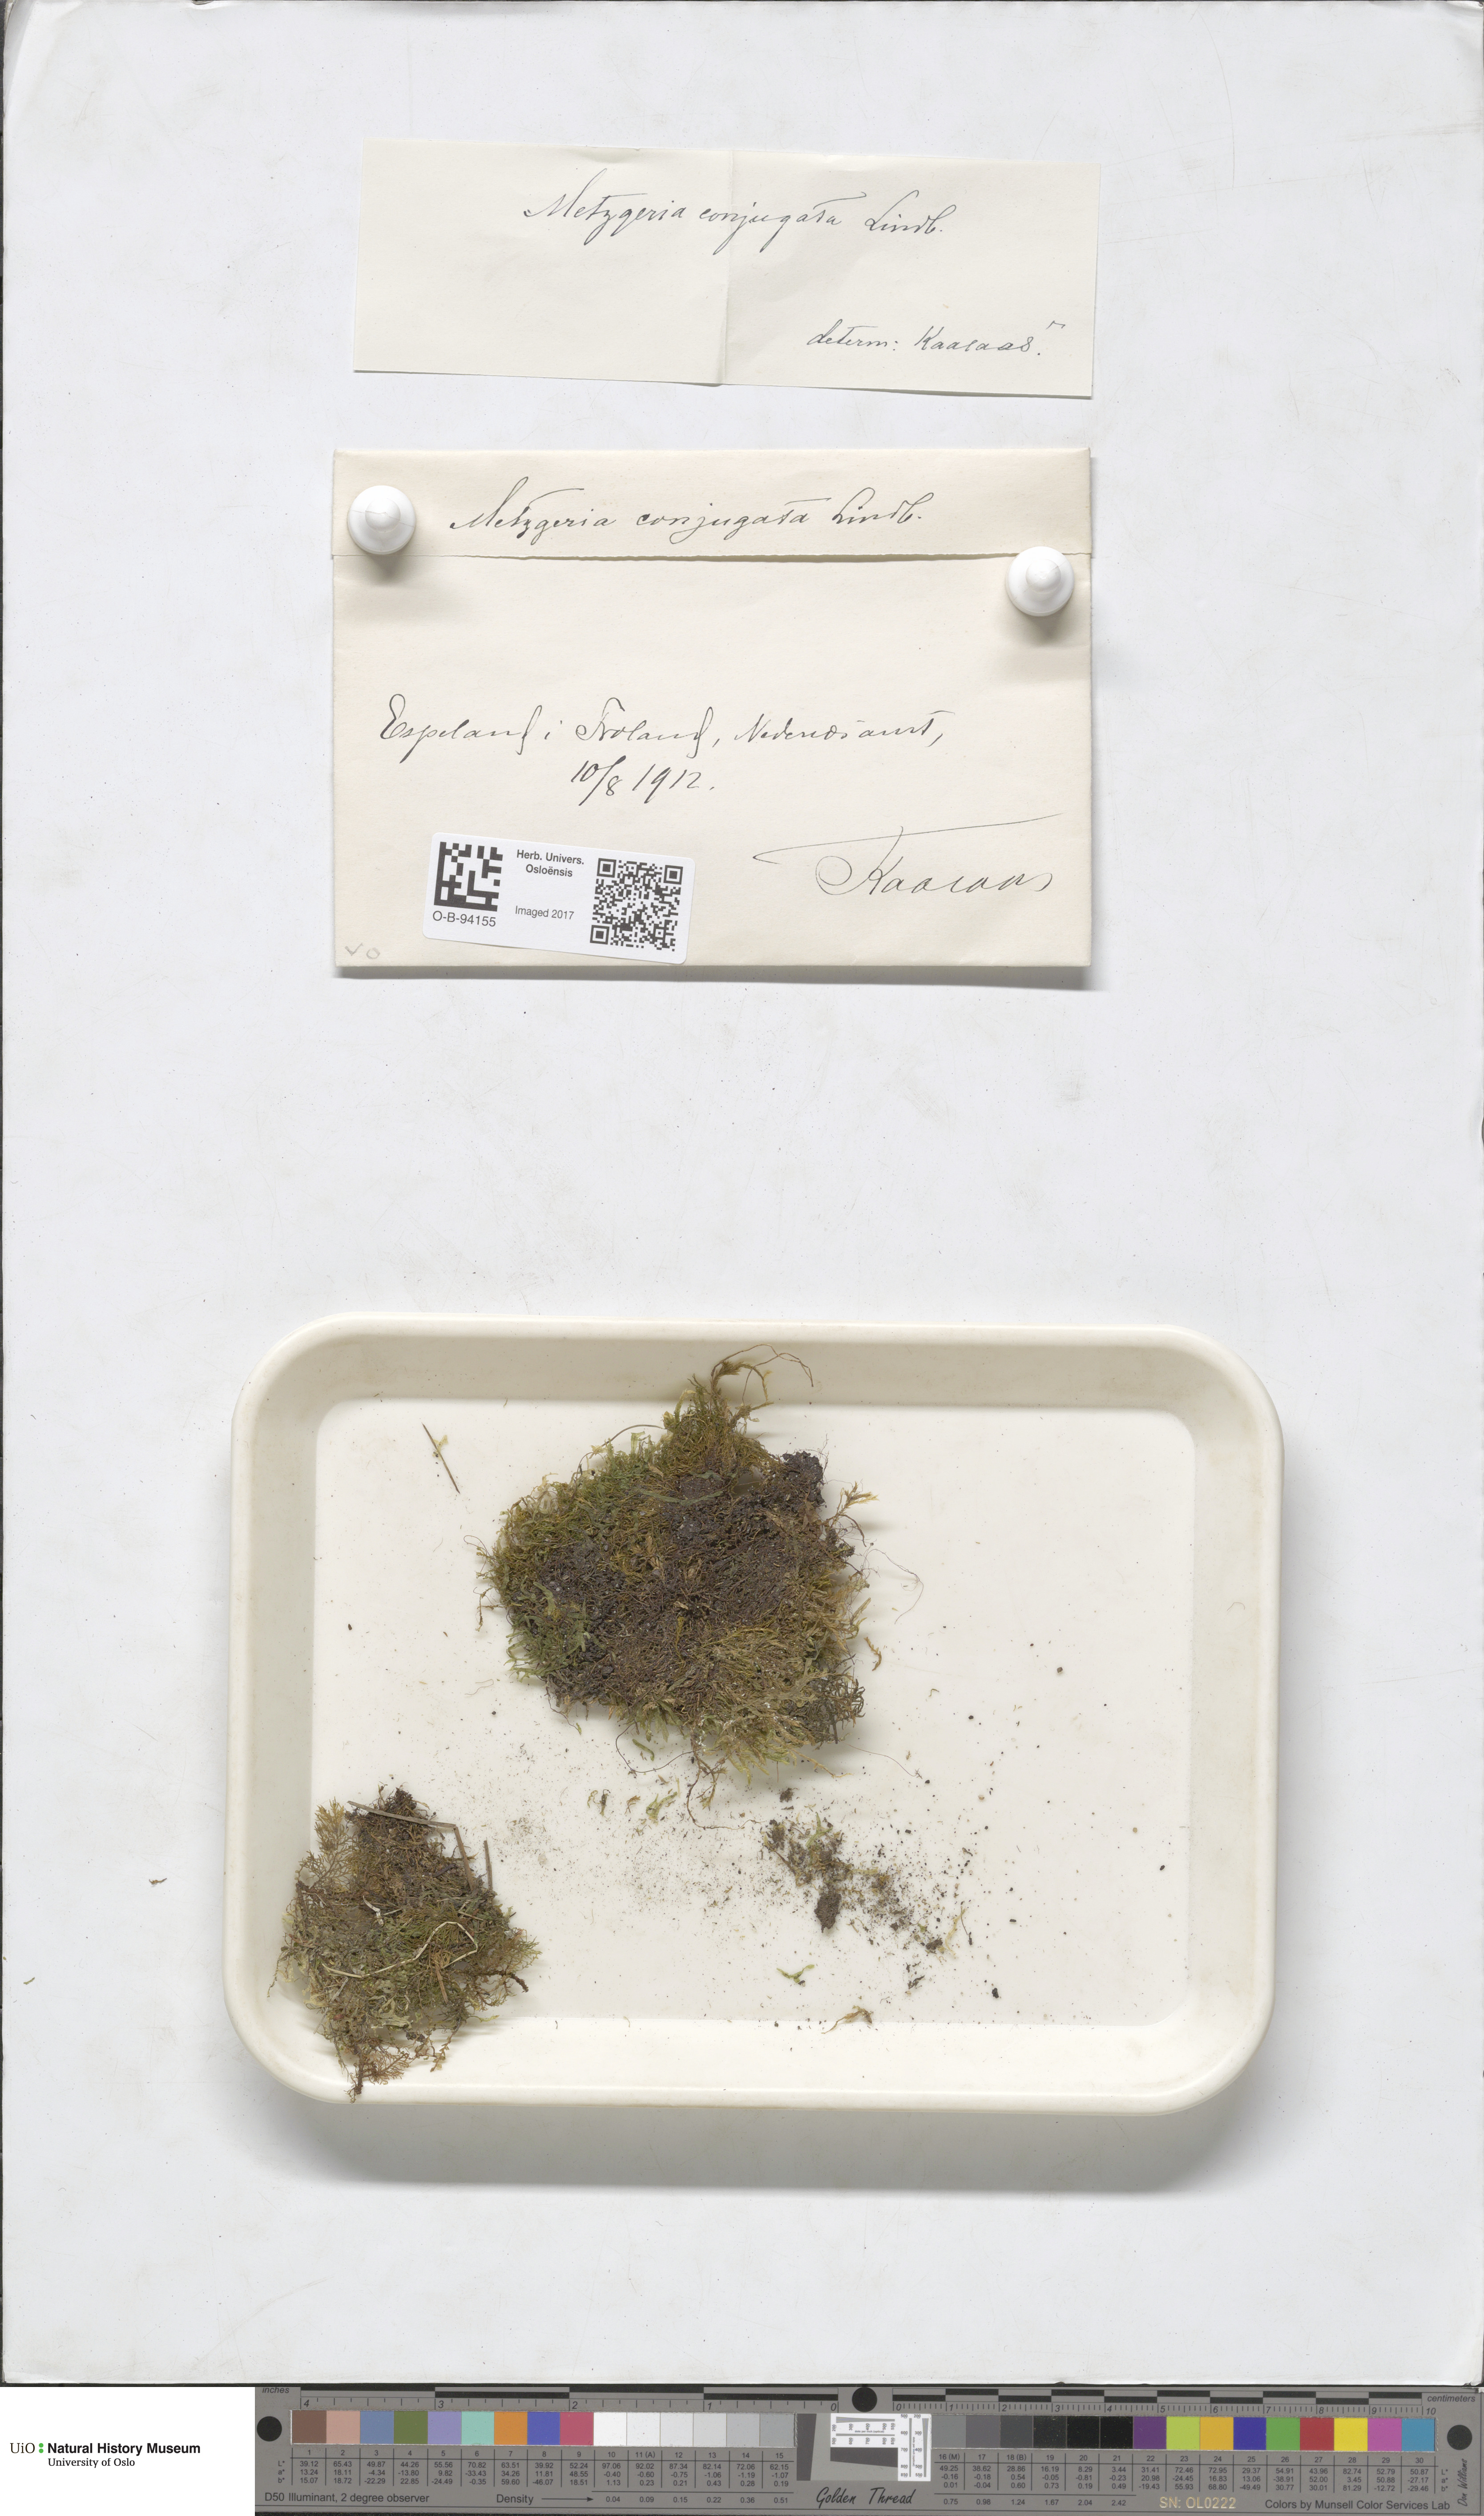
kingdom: Plantae
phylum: Marchantiophyta
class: Jungermanniopsida
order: Metzgeriales
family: Metzgeriaceae
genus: Metzgeria
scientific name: Metzgeria conjugata
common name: Rock veilwort
